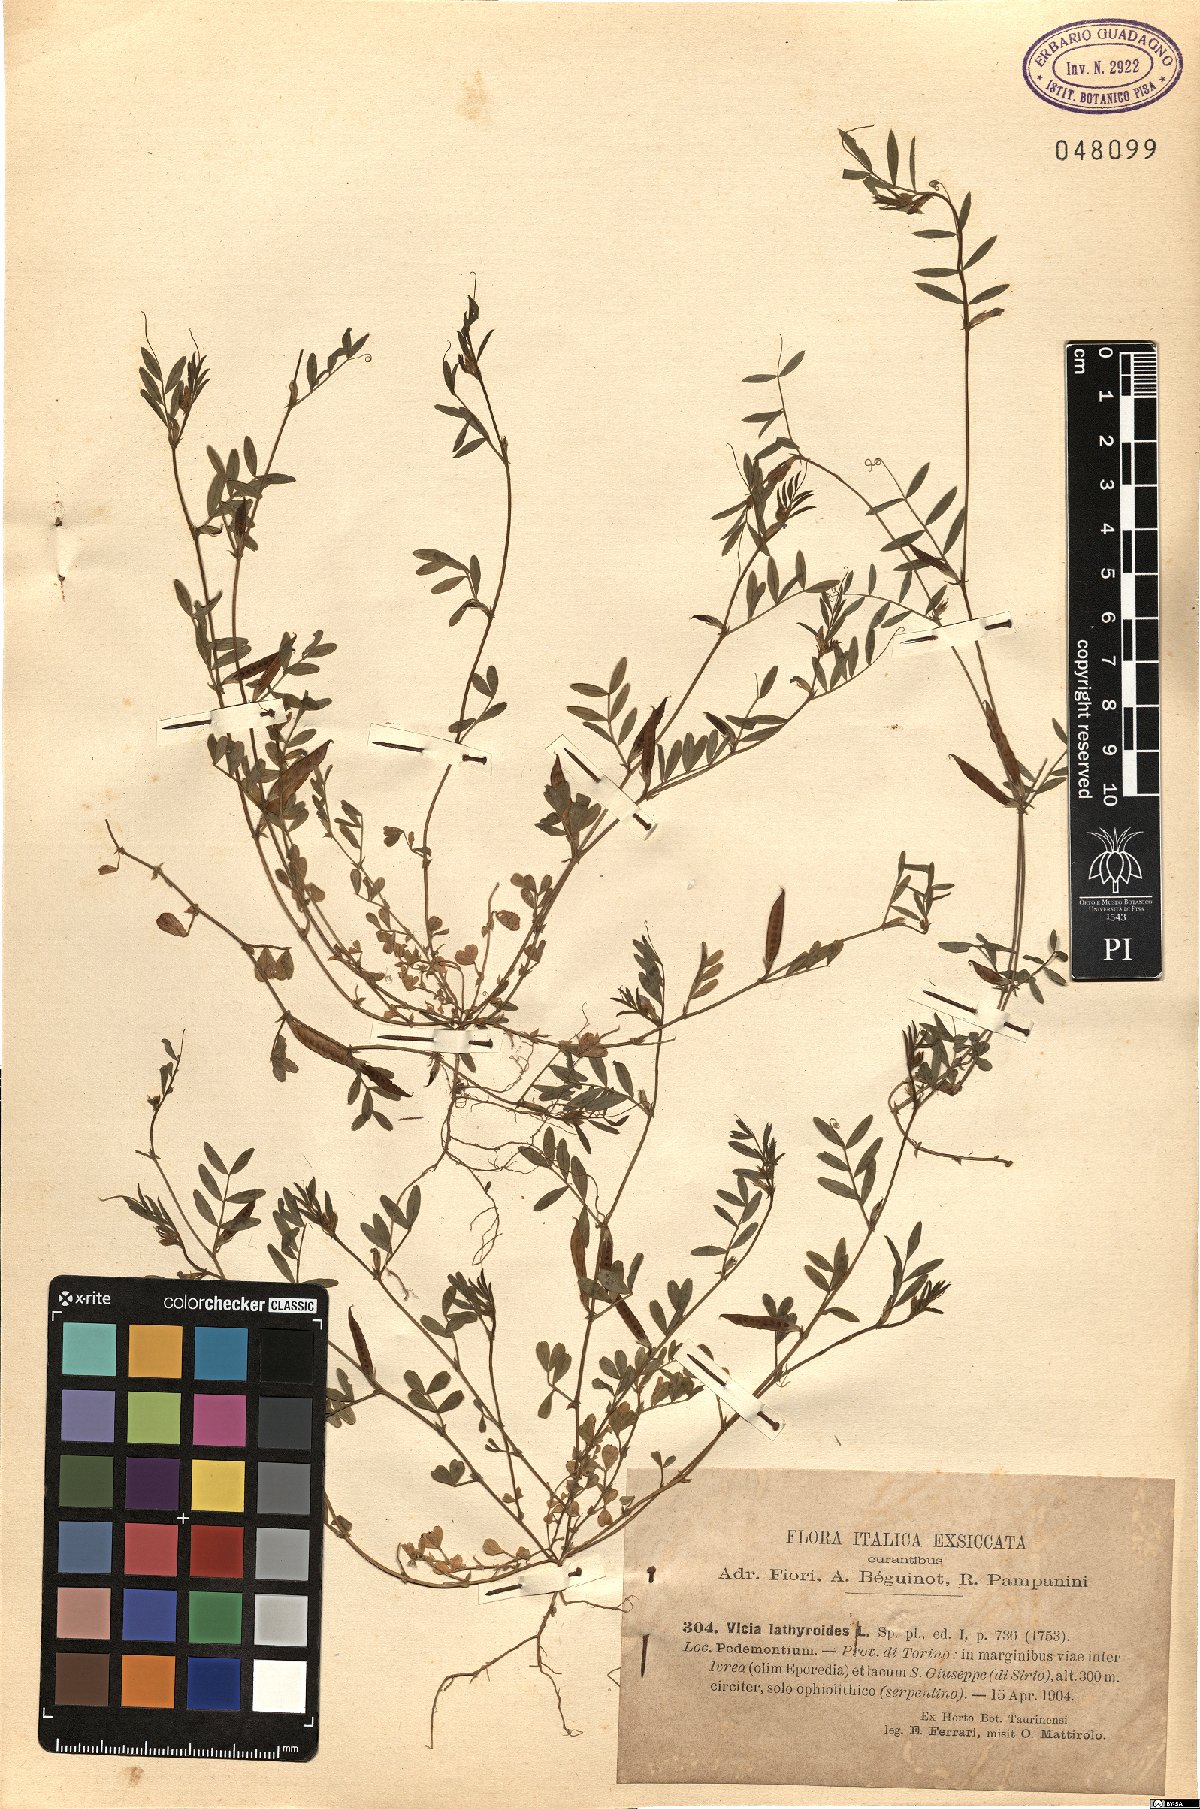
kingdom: Plantae
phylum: Tracheophyta
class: Magnoliopsida
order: Fabales
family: Fabaceae
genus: Vicia
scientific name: Vicia lathyroides
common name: Spring vetch
